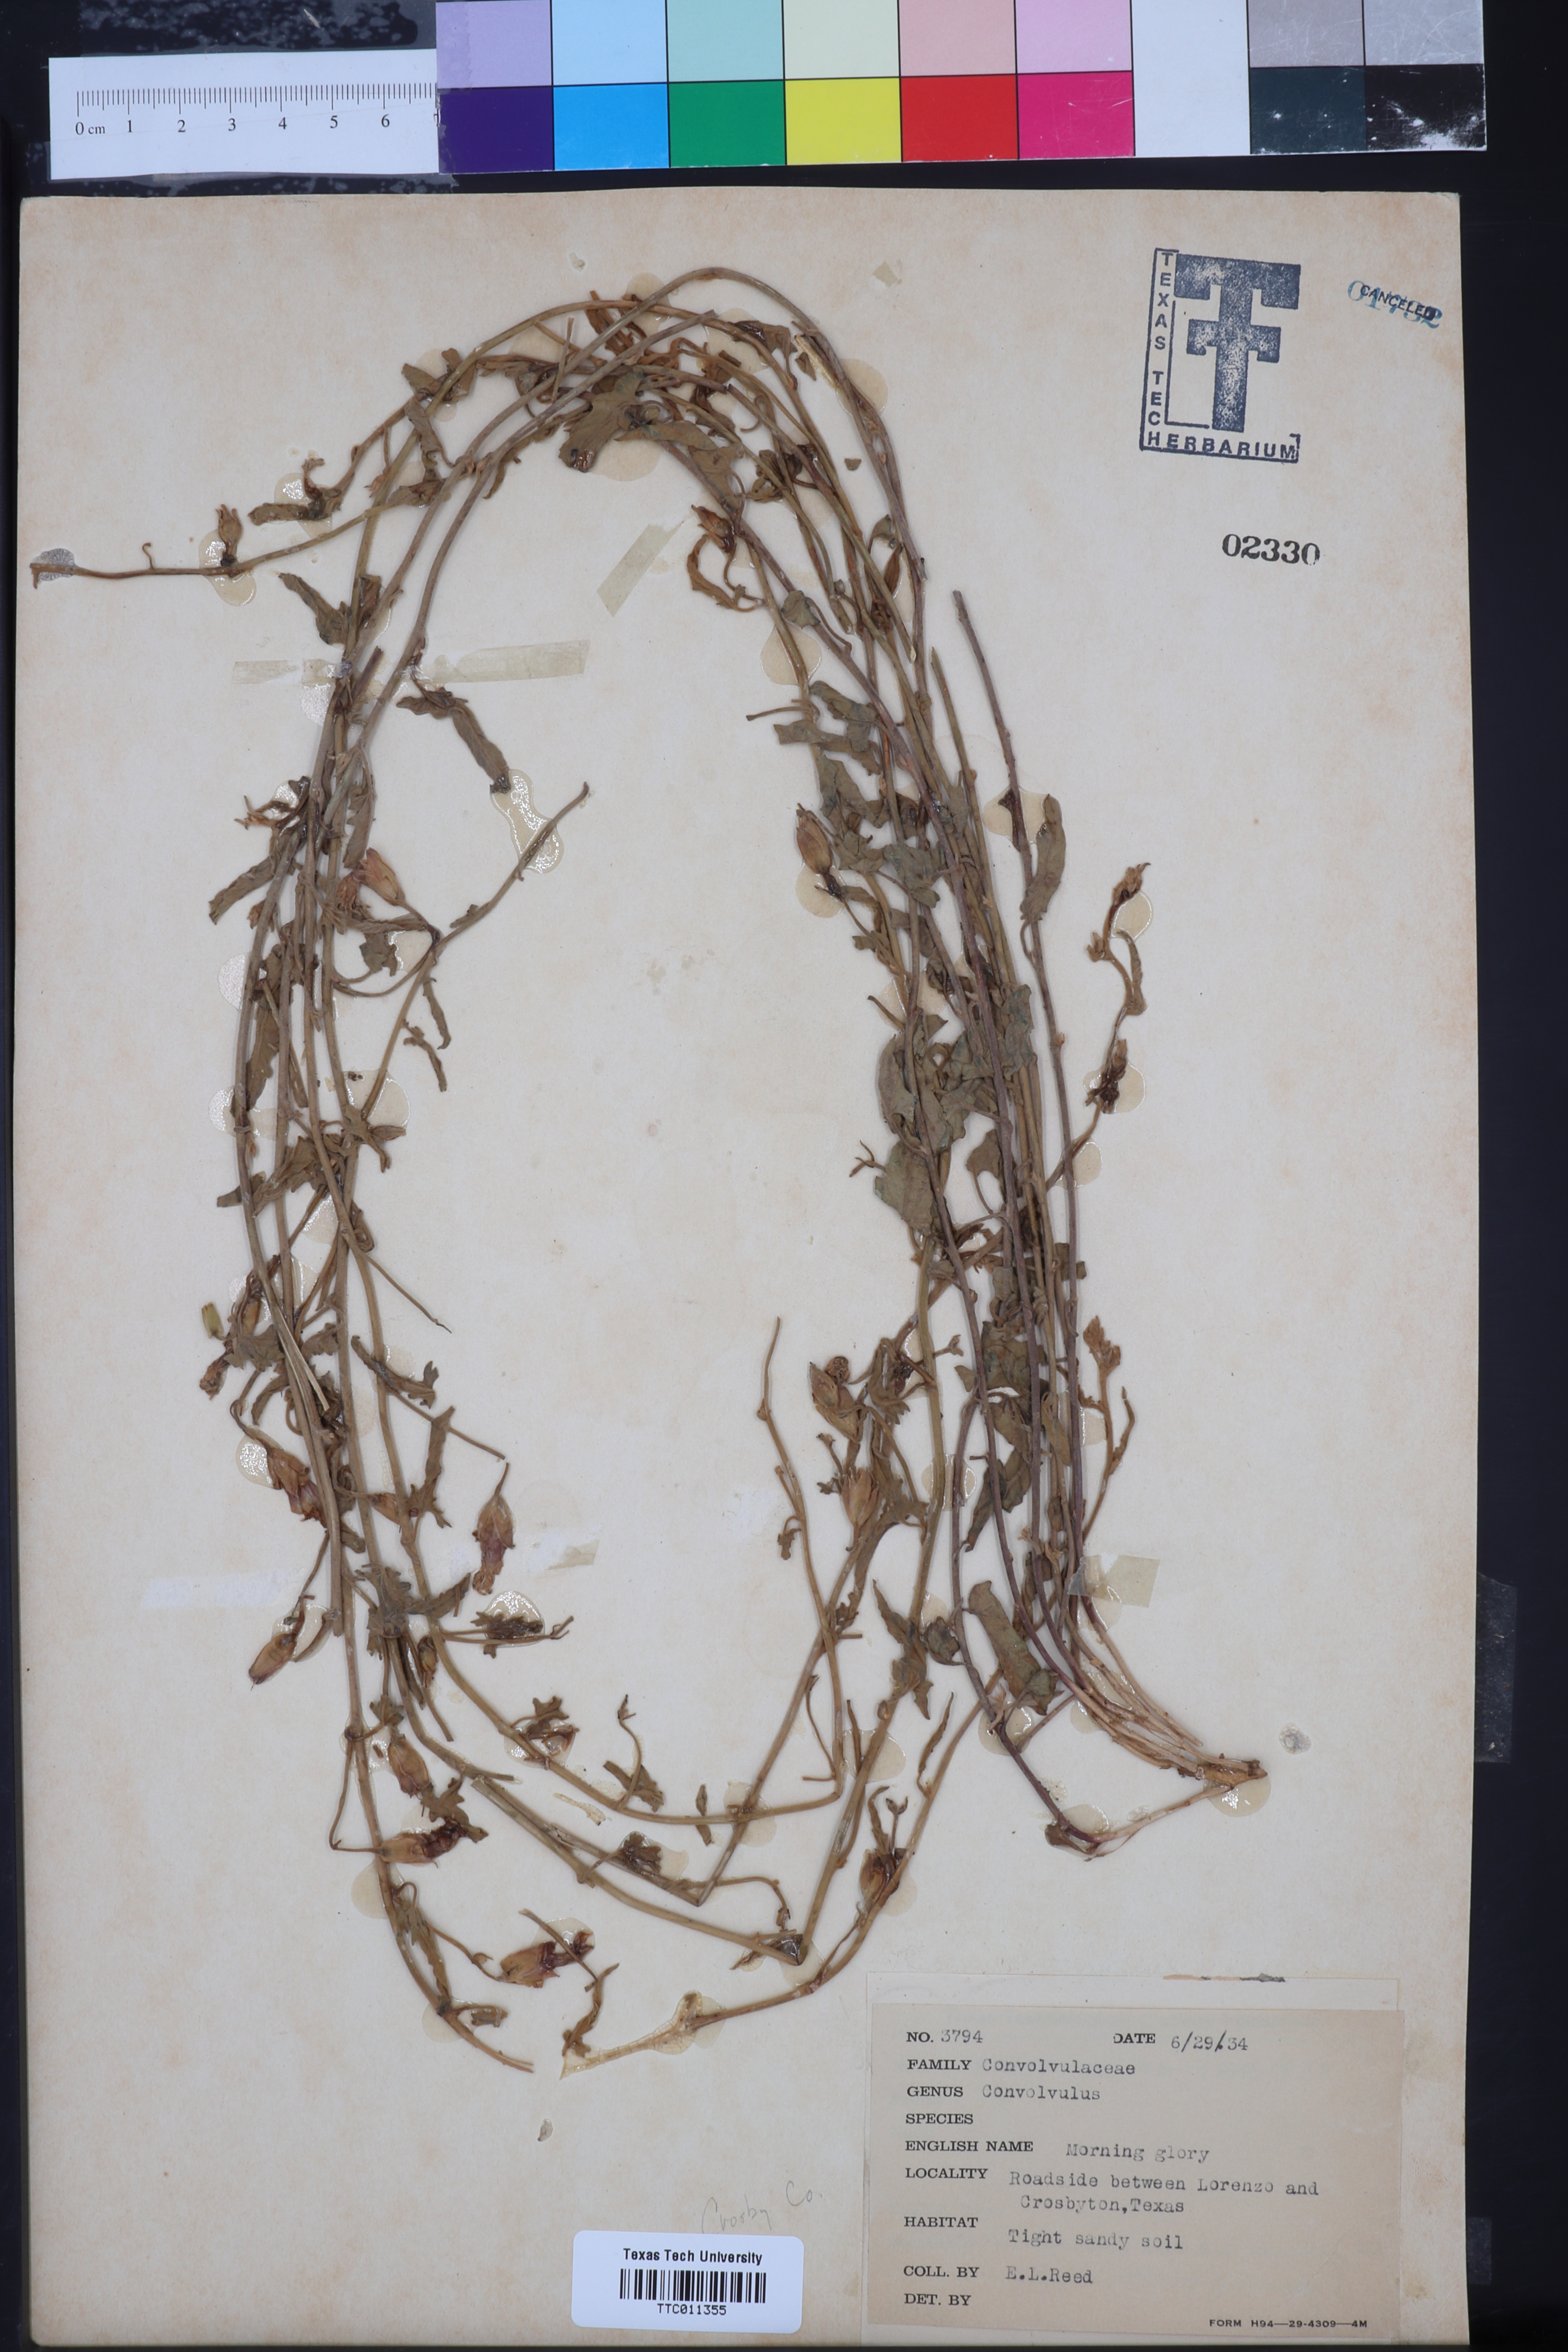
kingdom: Plantae
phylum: Tracheophyta
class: Magnoliopsida
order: Solanales
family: Convolvulaceae
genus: Convolvulus
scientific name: Convolvulus
